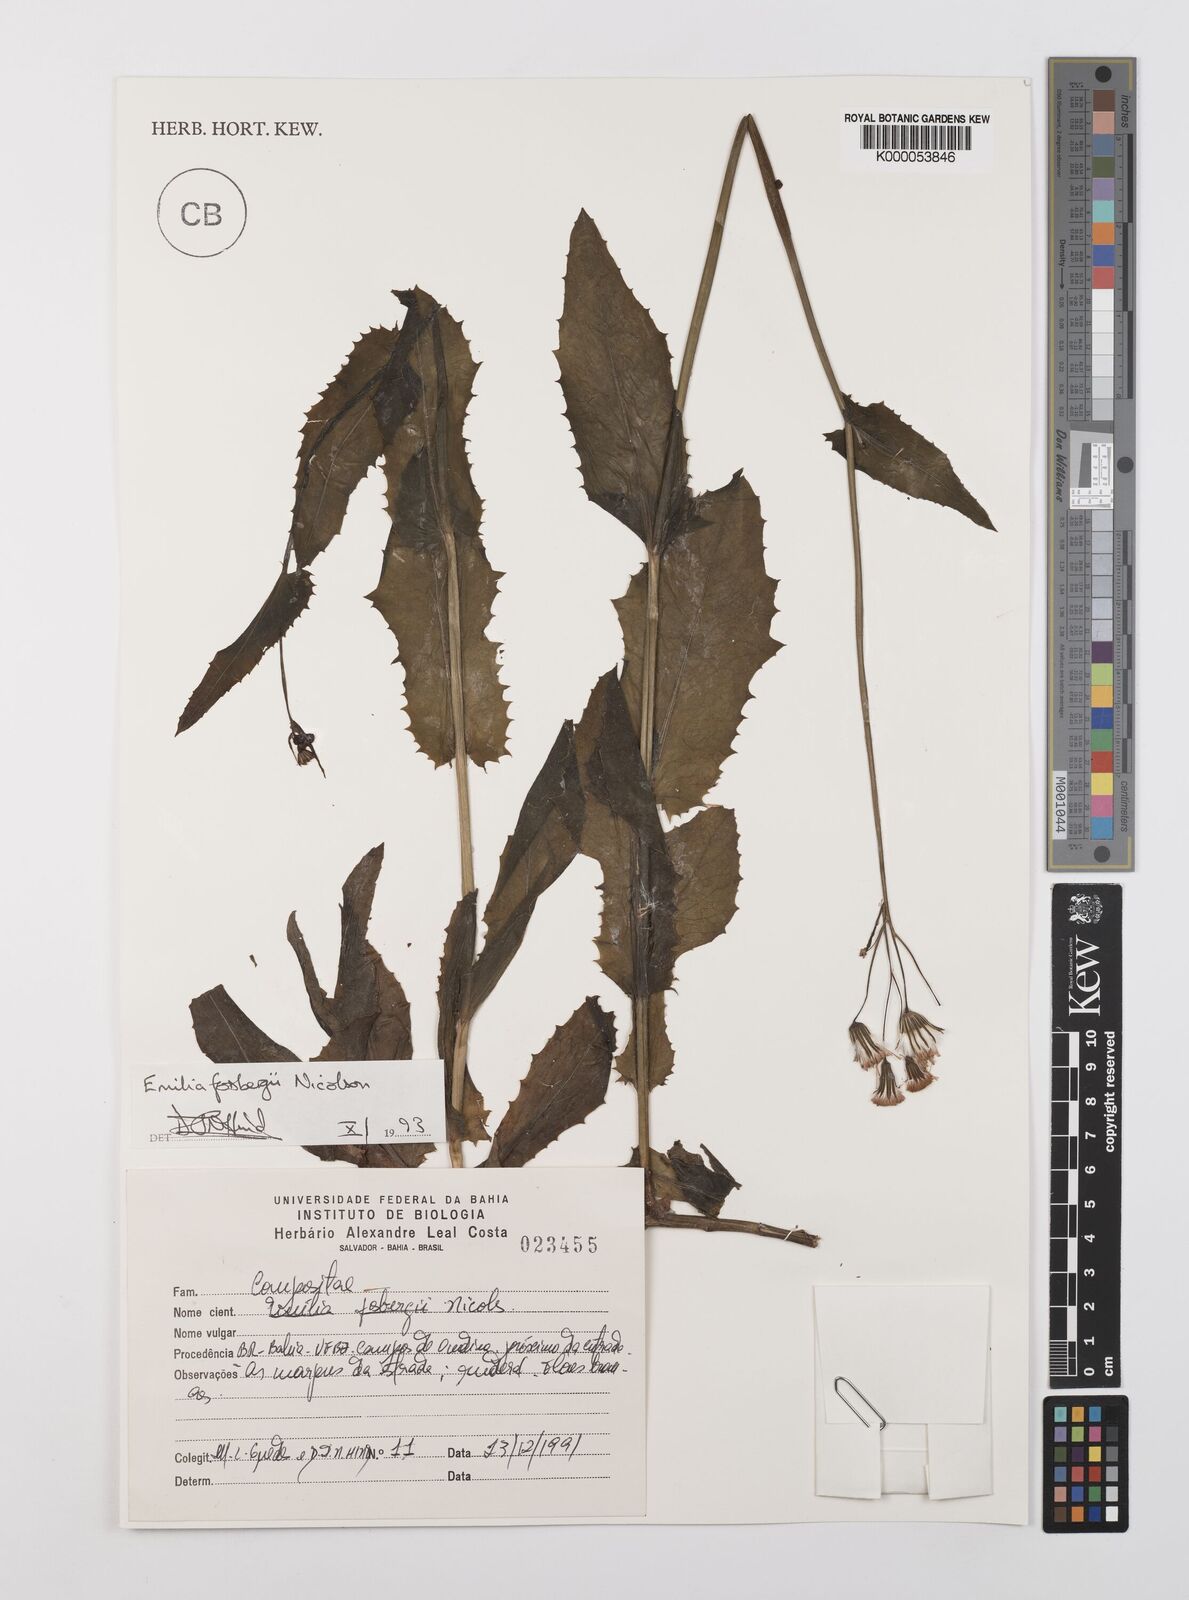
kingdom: Plantae
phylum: Tracheophyta
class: Magnoliopsida
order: Asterales
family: Asteraceae
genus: Emilia
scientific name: Emilia fosbergii
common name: Florida tasselflower
